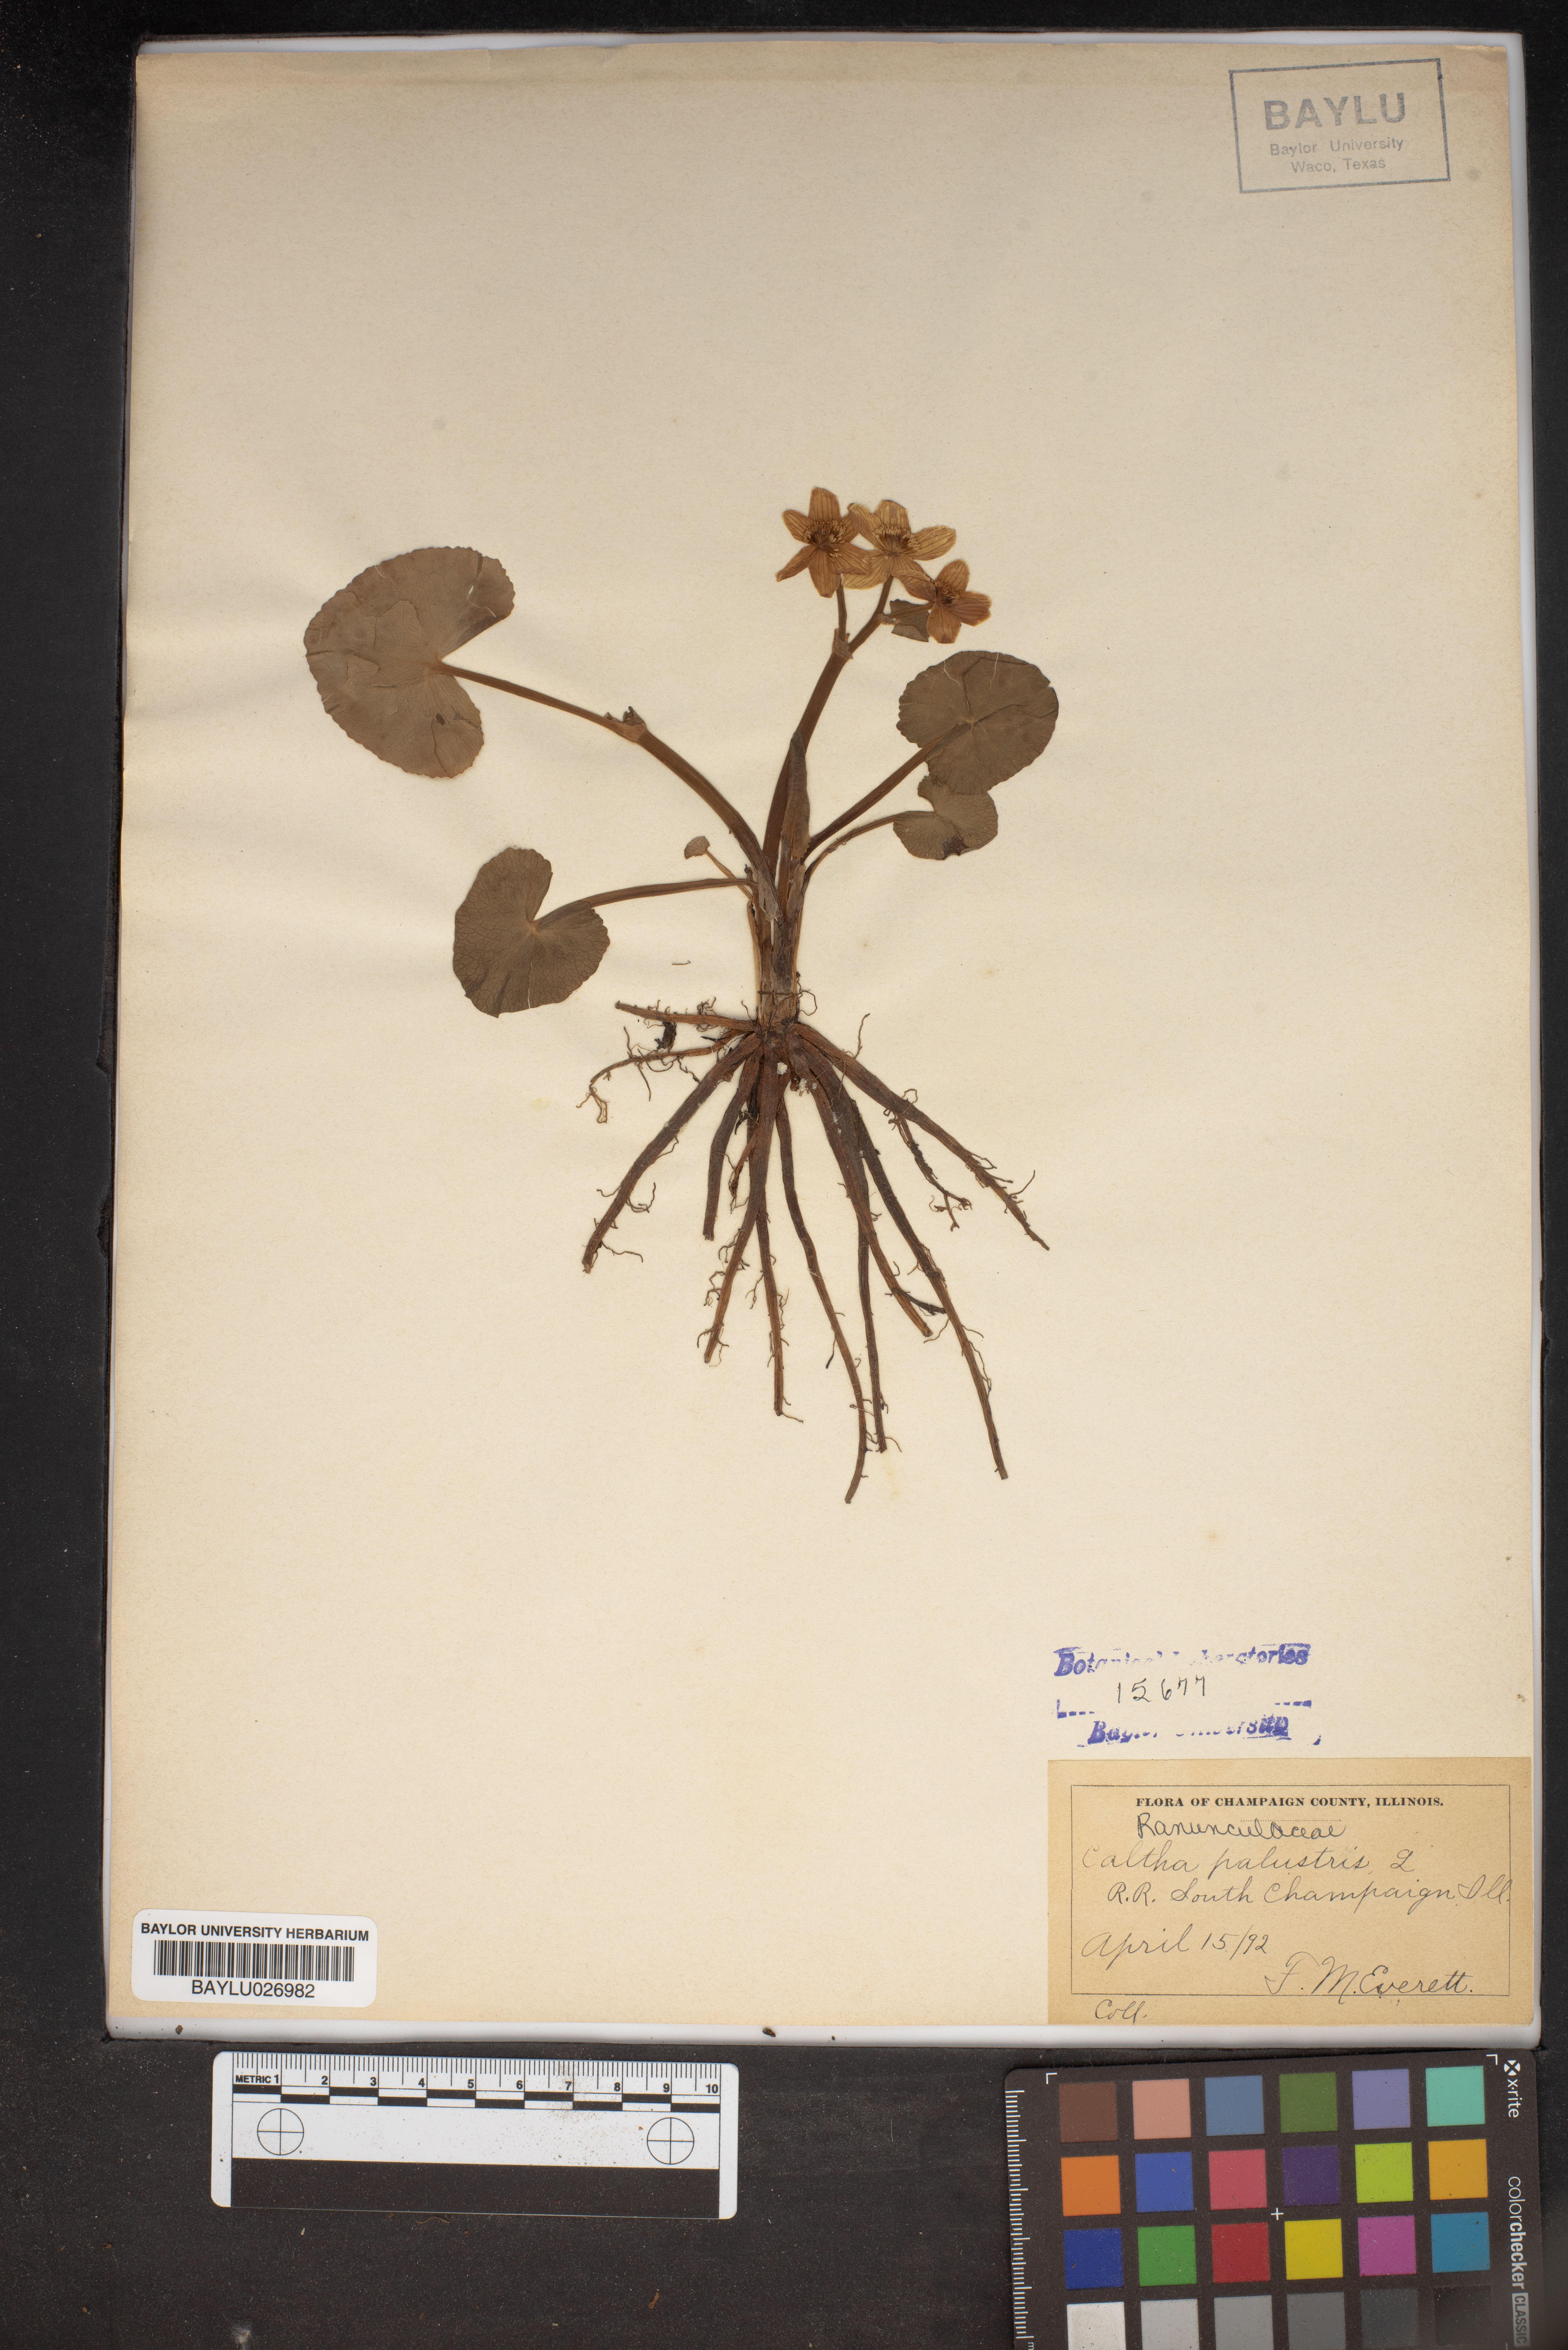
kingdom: Plantae
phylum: Tracheophyta
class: Magnoliopsida
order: Ranunculales
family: Ranunculaceae
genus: Caltha
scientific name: Caltha palustris
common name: Marsh marigold
